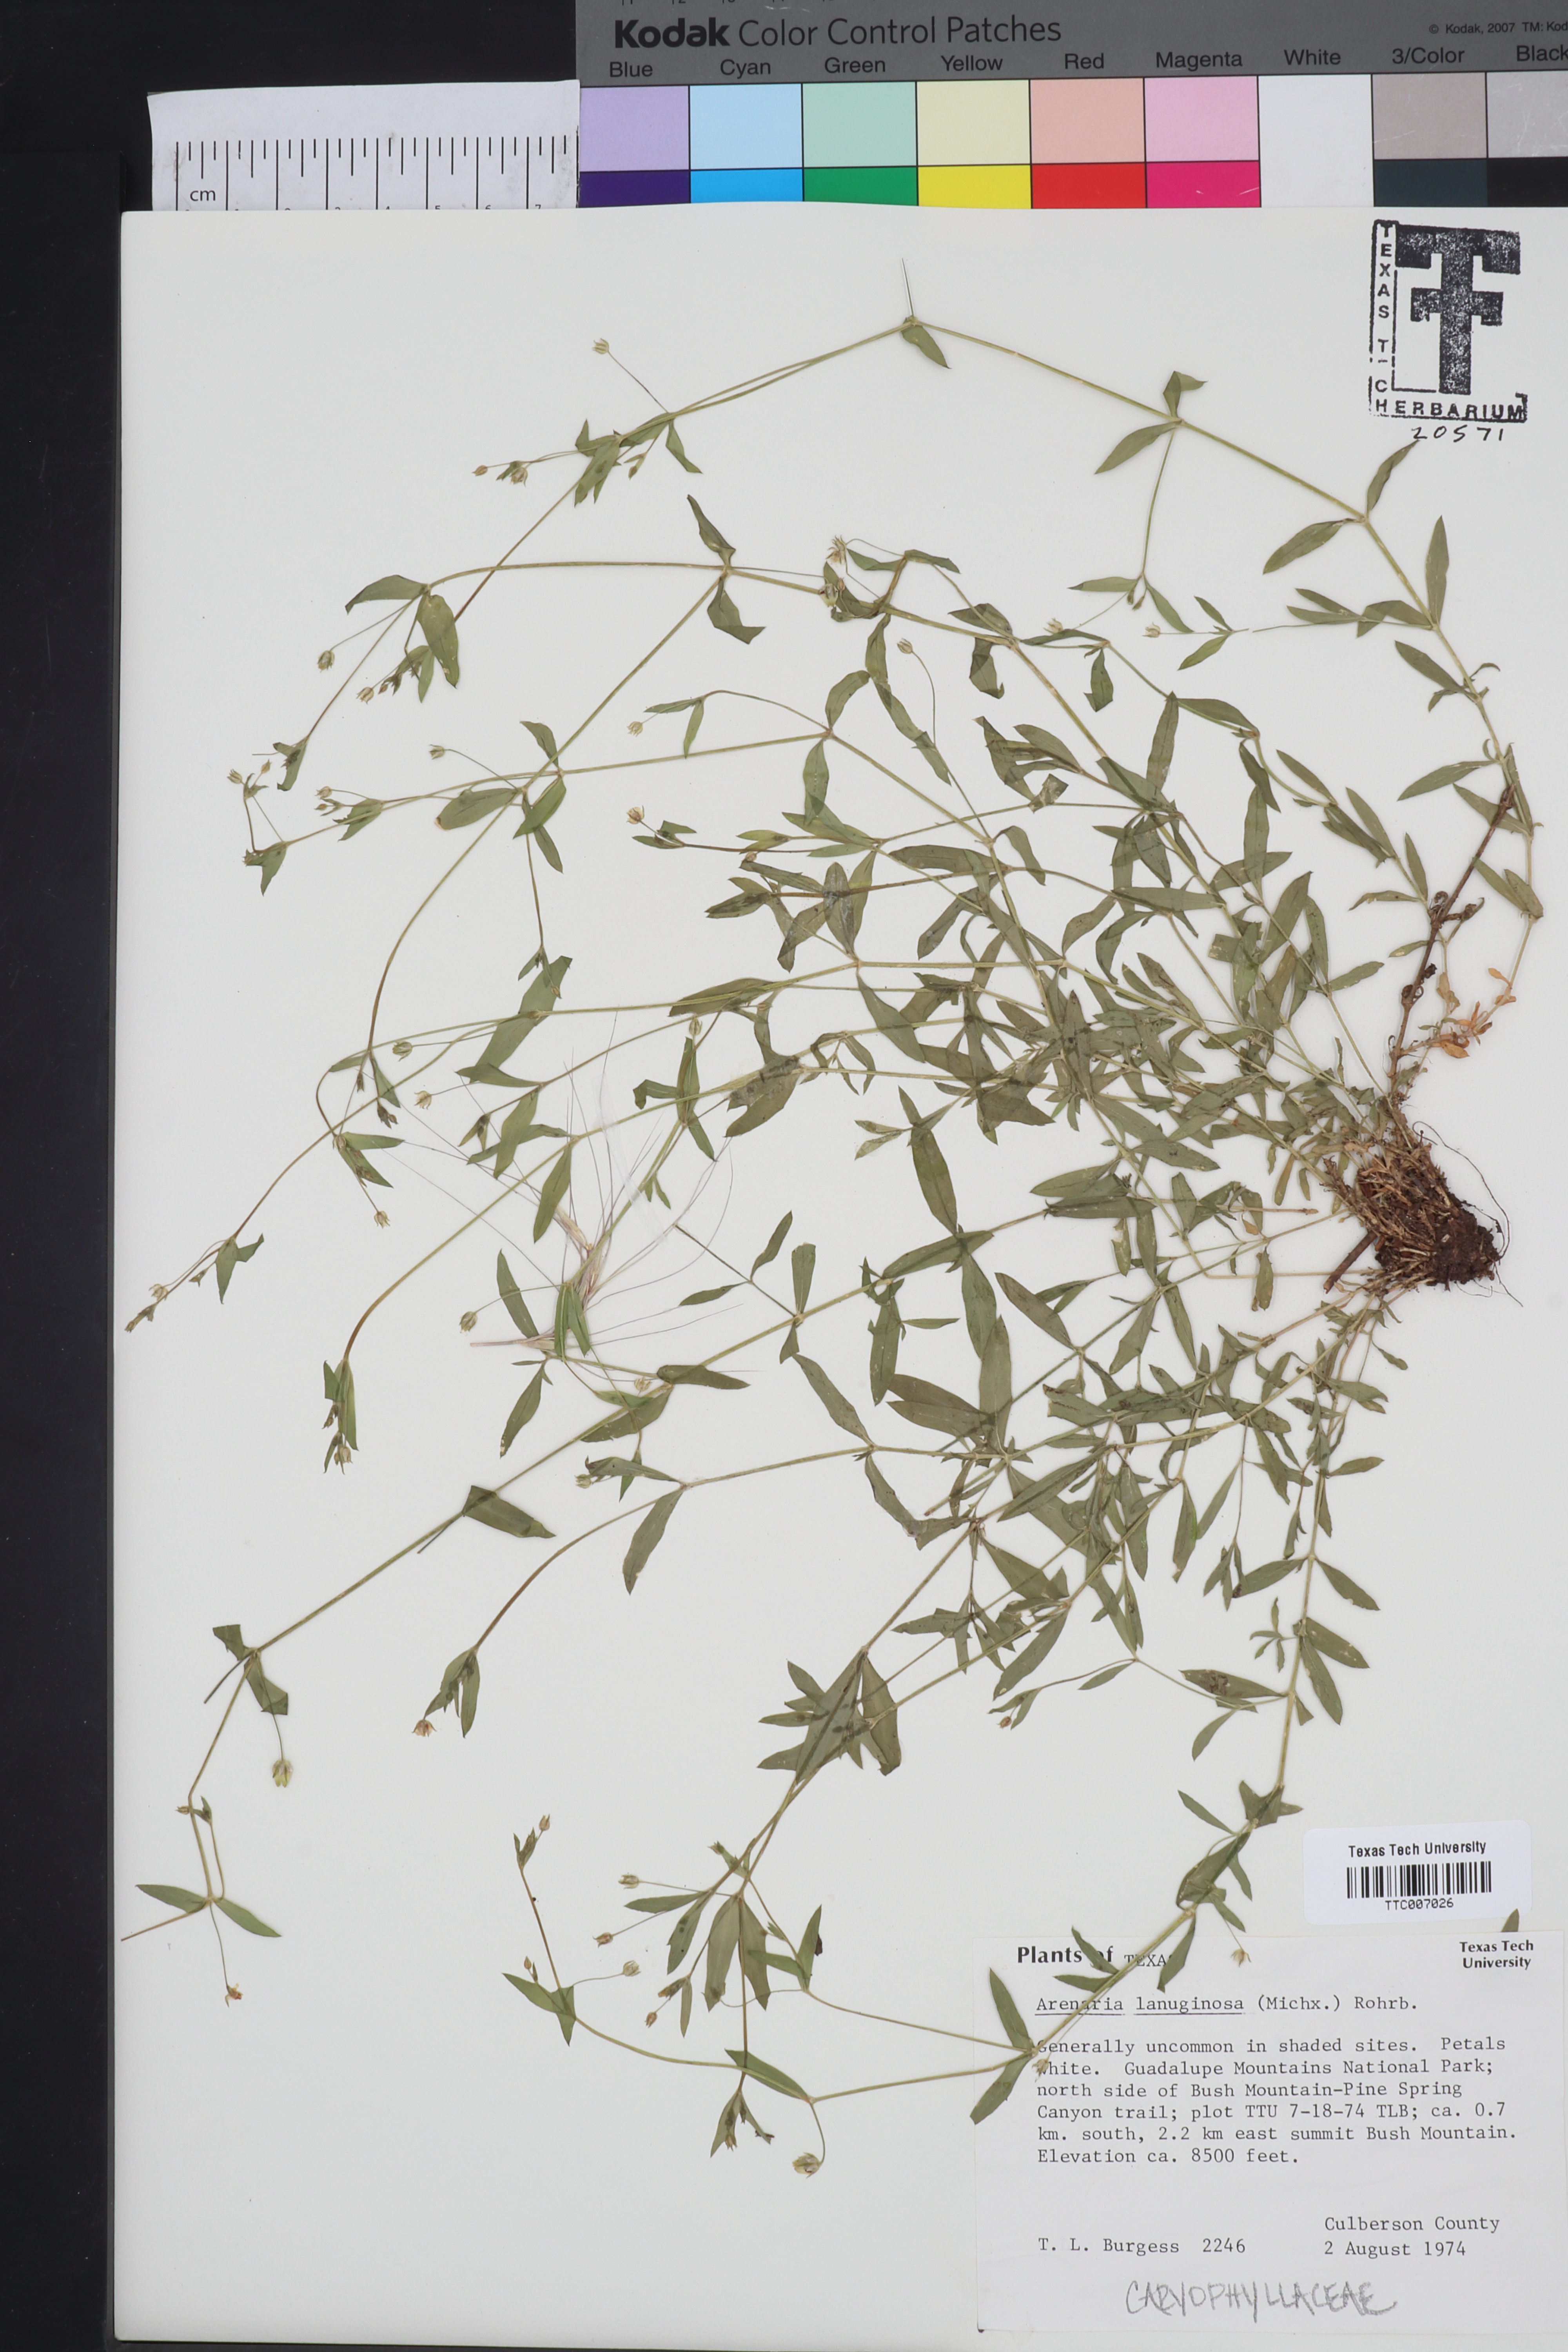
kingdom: Plantae
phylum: Tracheophyta
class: Magnoliopsida
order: Caryophyllales
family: Caryophyllaceae
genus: Arenaria
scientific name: Arenaria lanuginosa
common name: Spread sandwort
